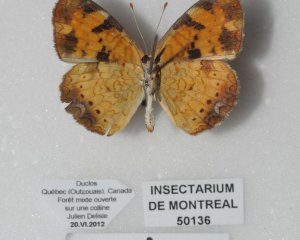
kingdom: Animalia
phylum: Arthropoda
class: Insecta
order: Lepidoptera
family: Nymphalidae
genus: Phyciodes
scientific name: Phyciodes tharos
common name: Northern Crescent
